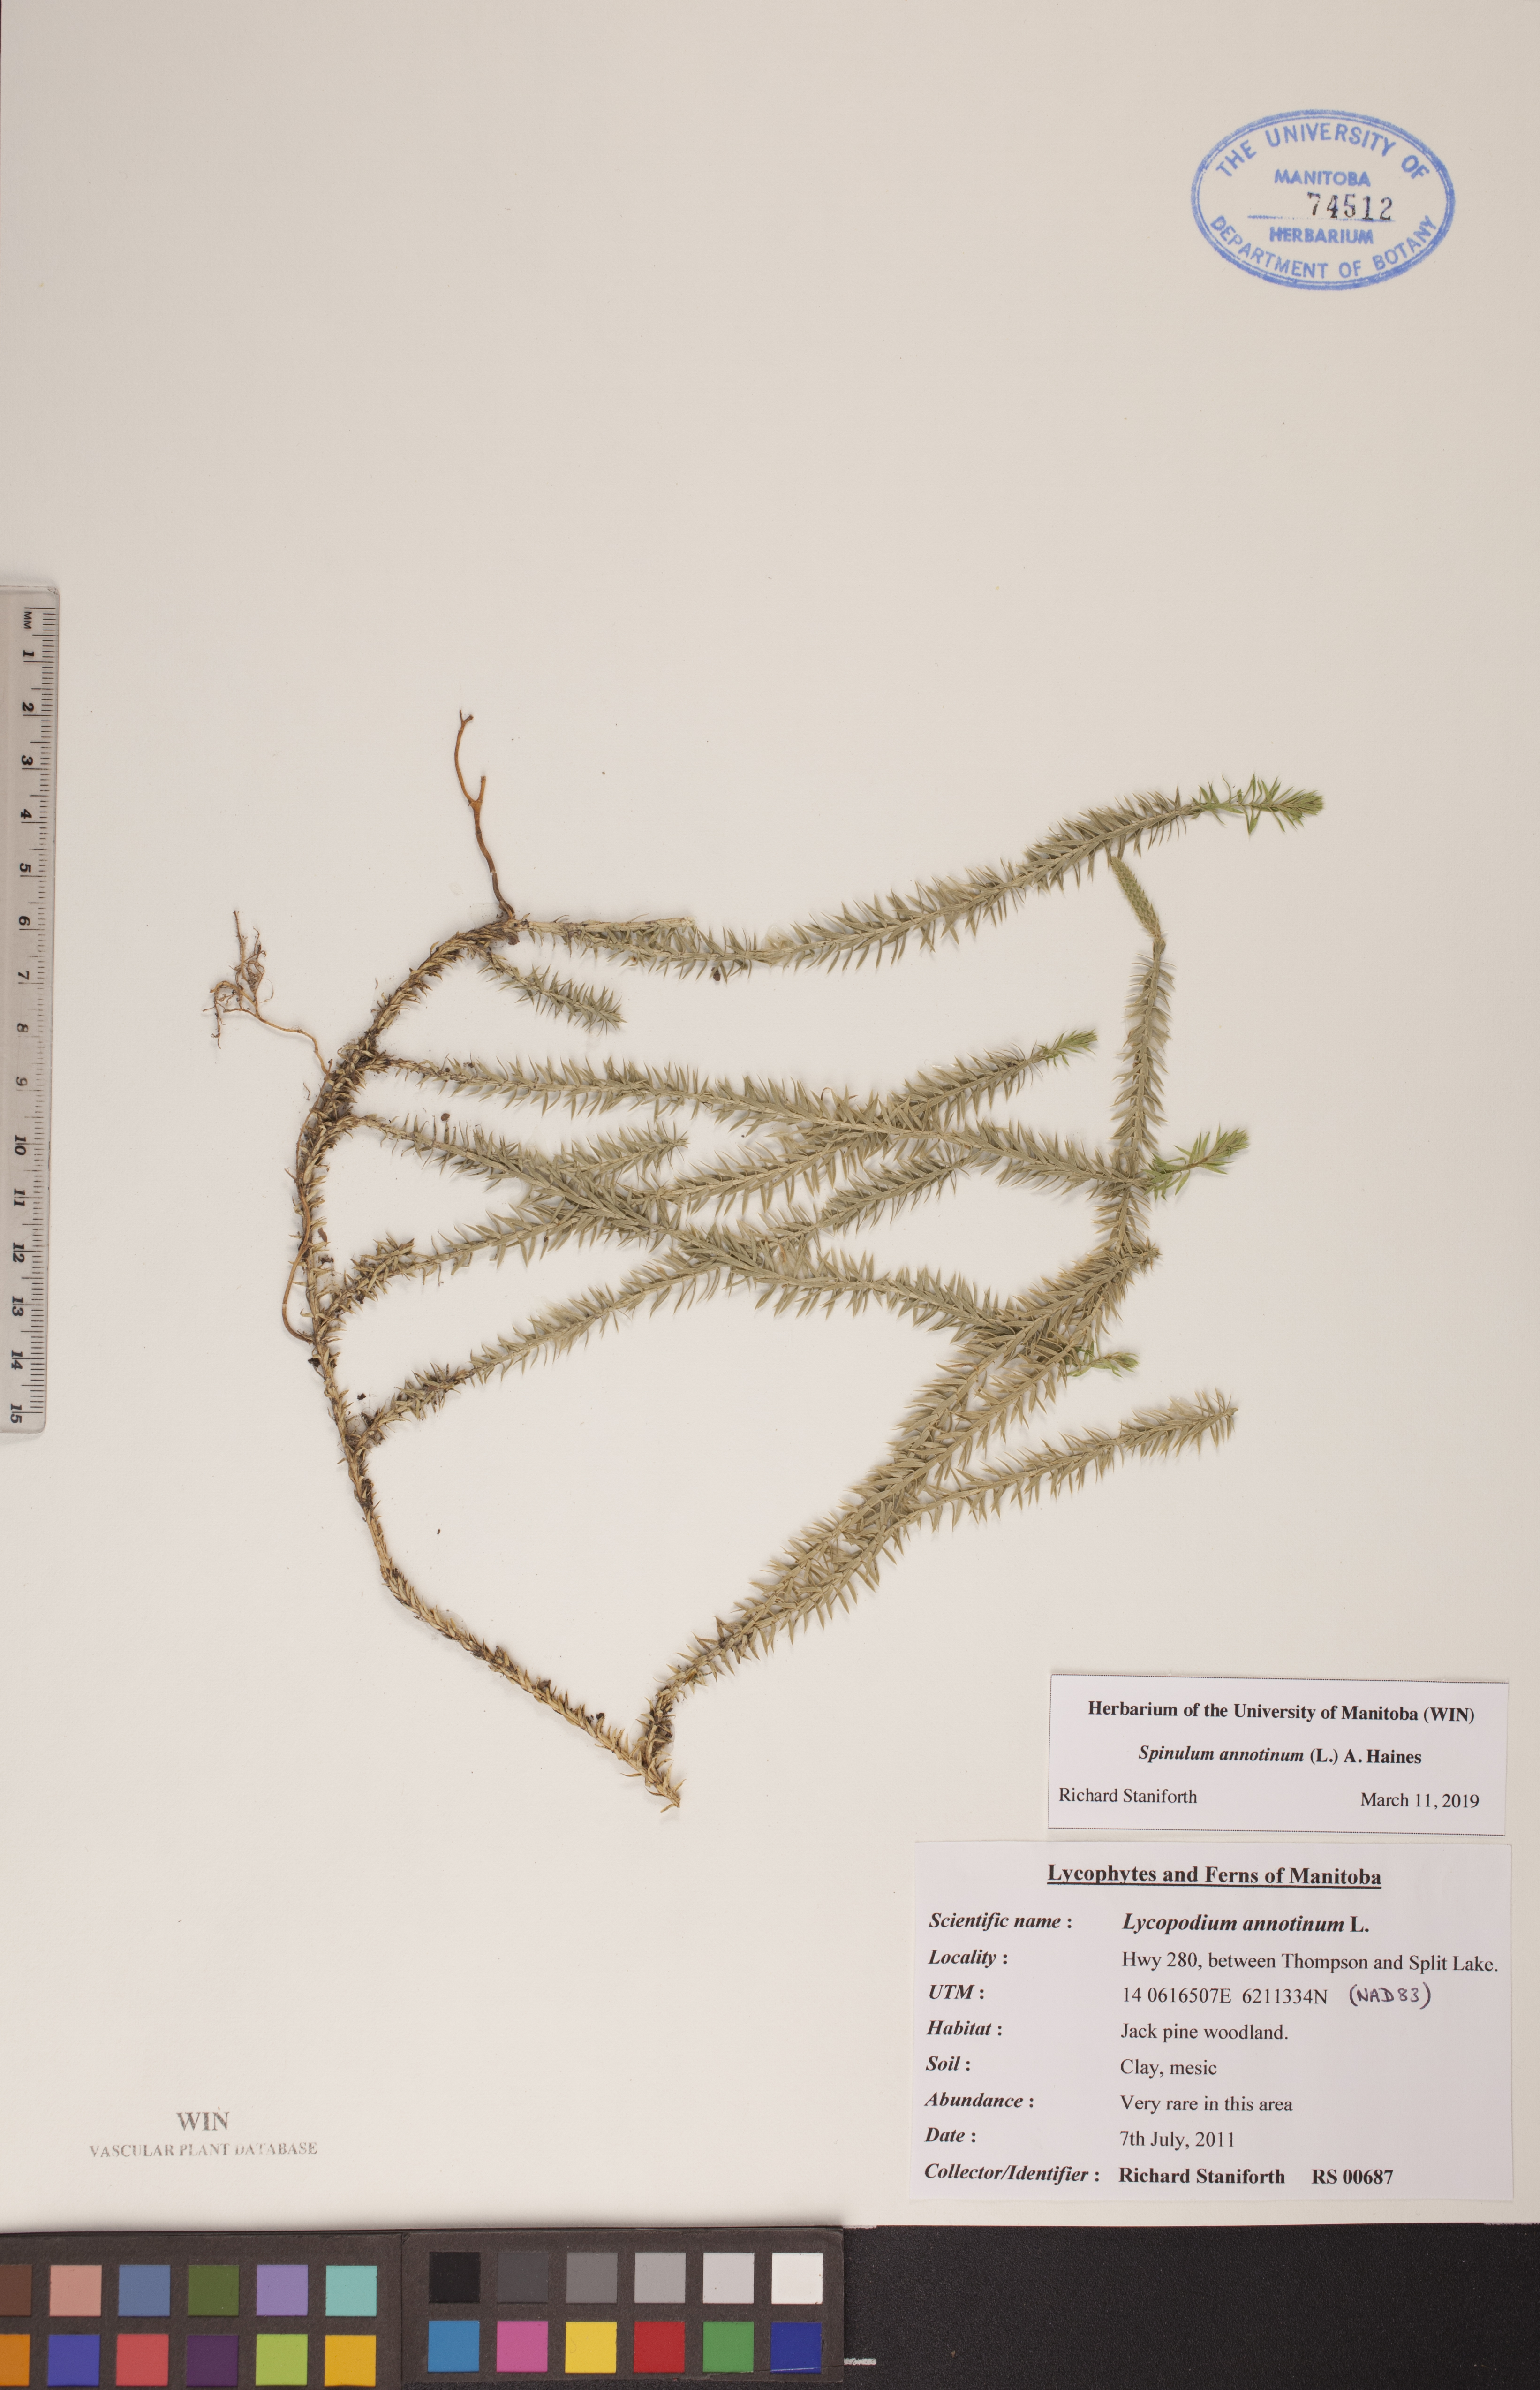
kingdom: Plantae
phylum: Tracheophyta
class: Lycopodiopsida
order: Lycopodiales
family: Lycopodiaceae
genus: Spinulum
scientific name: Spinulum annotinum
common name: Interrupted club-moss
